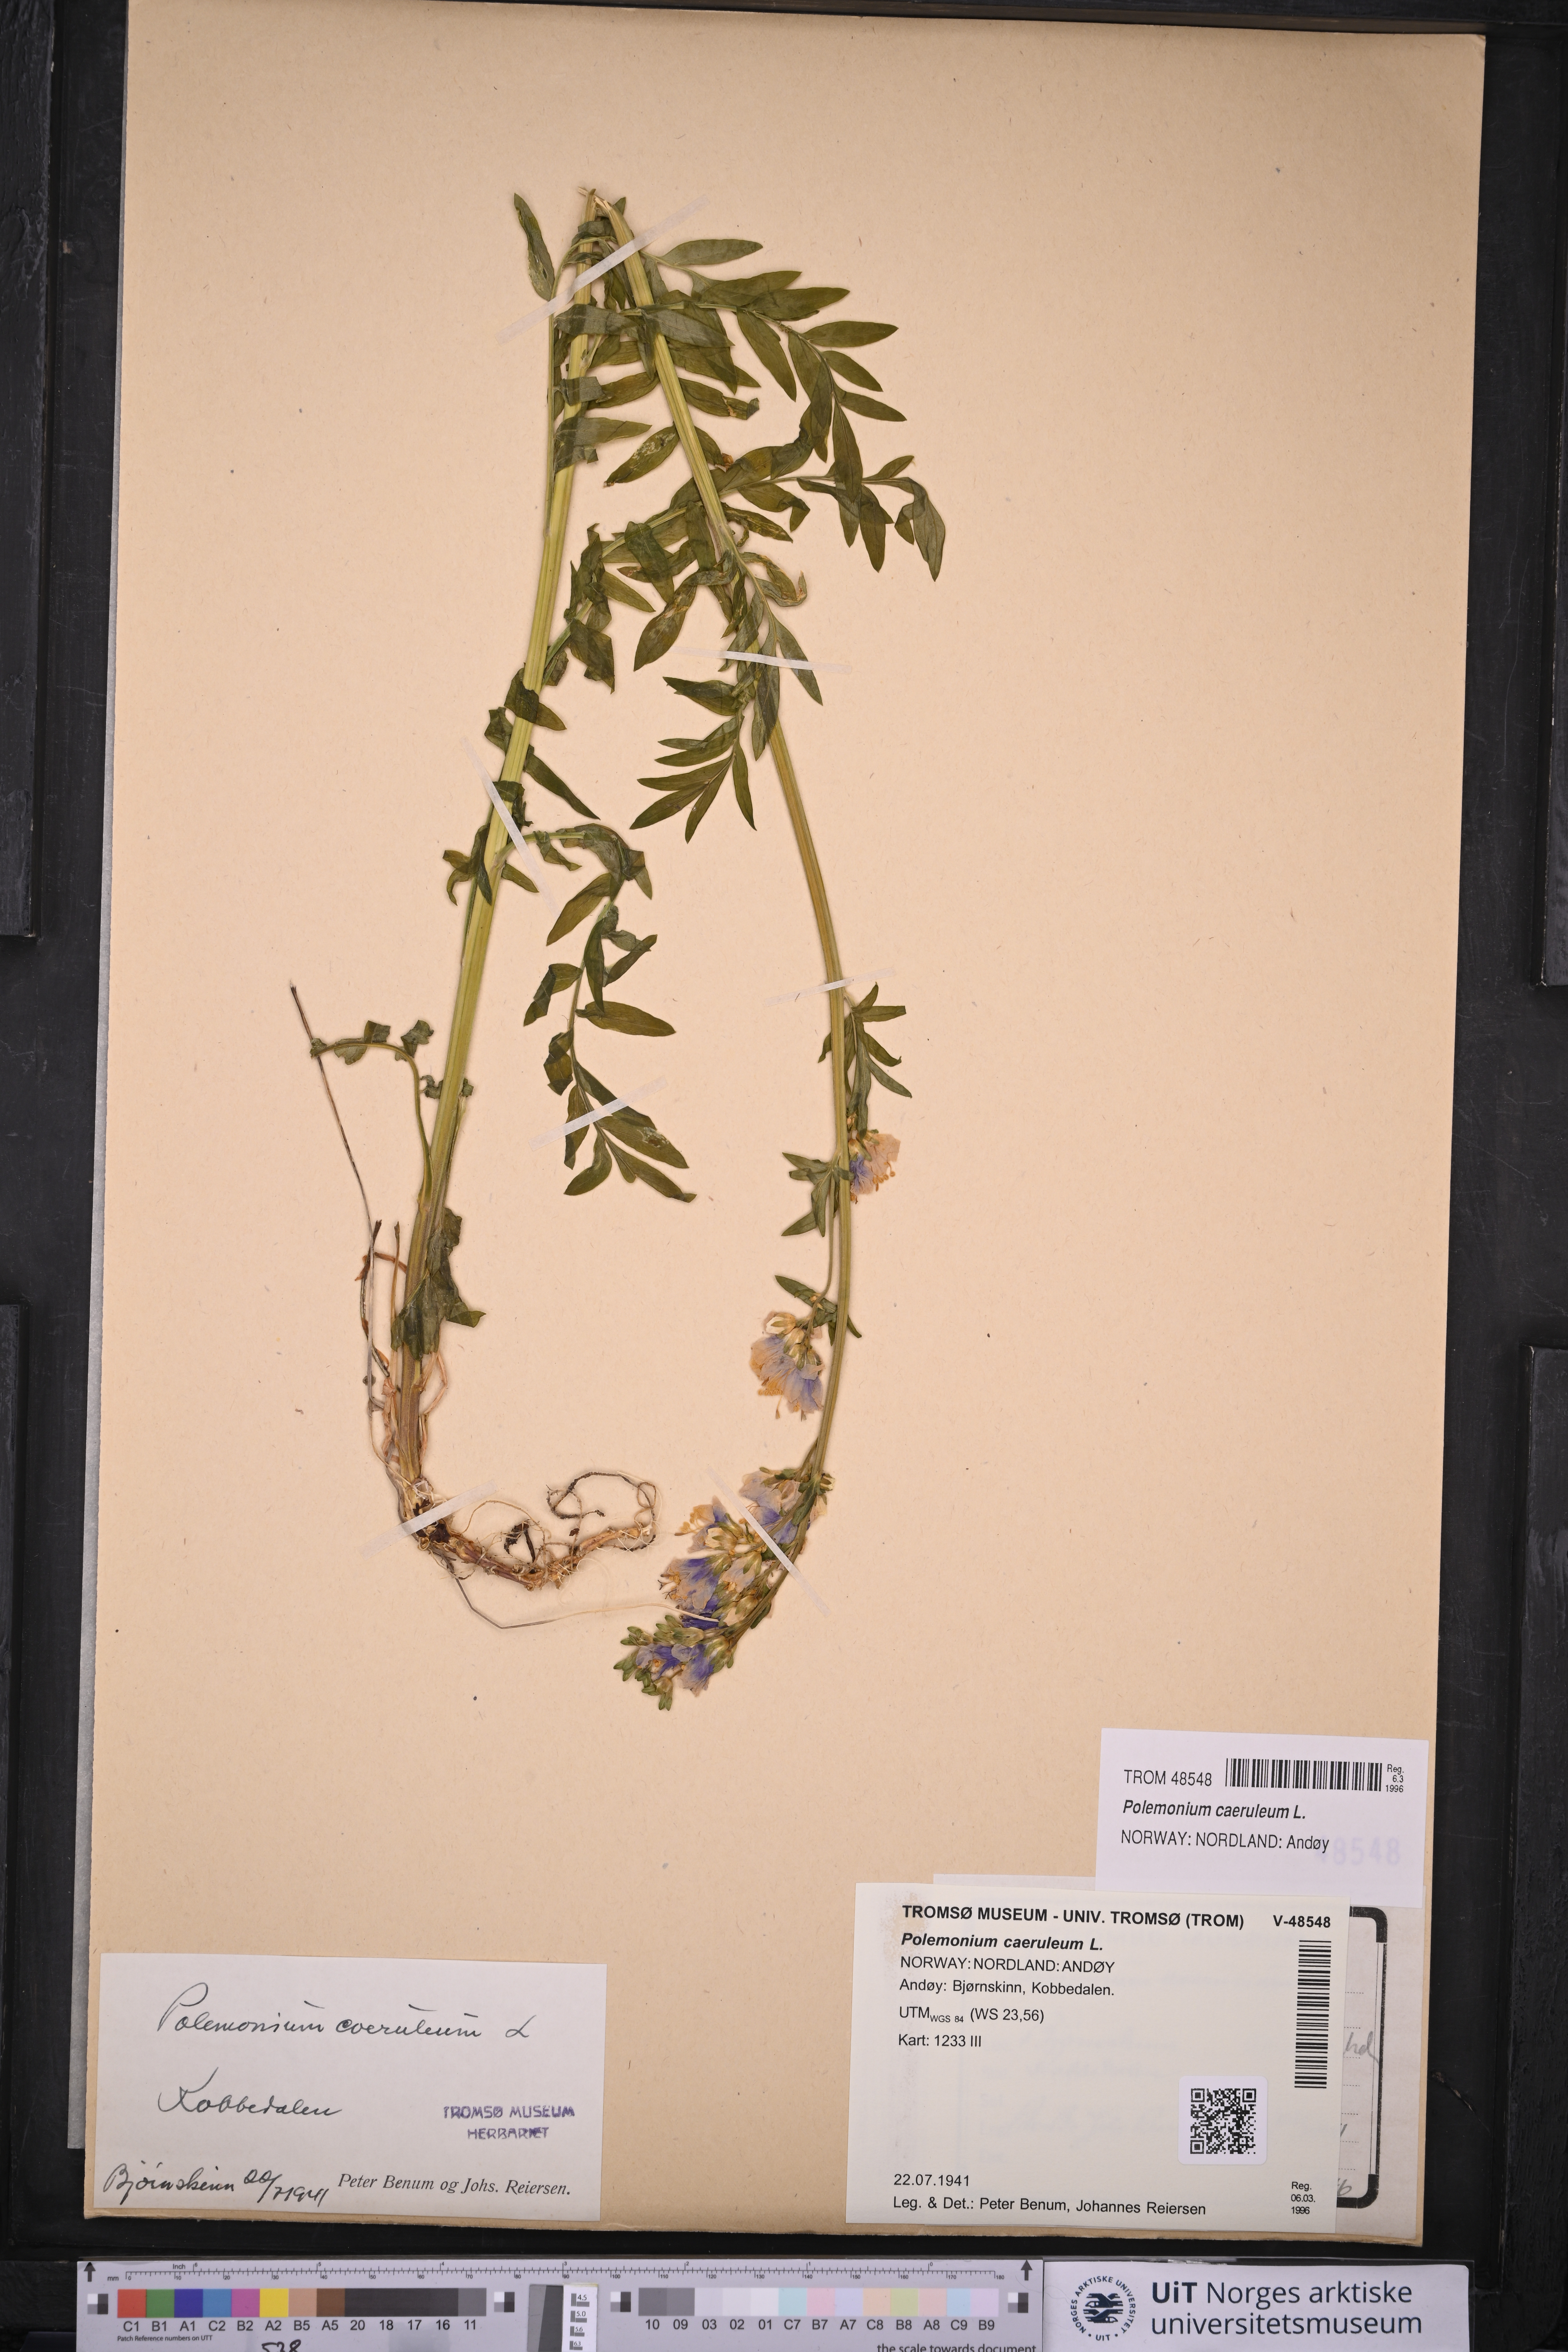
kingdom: Plantae
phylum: Tracheophyta
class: Magnoliopsida
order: Ericales
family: Polemoniaceae
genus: Polemonium
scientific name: Polemonium caeruleum
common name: Jacob's-ladder
